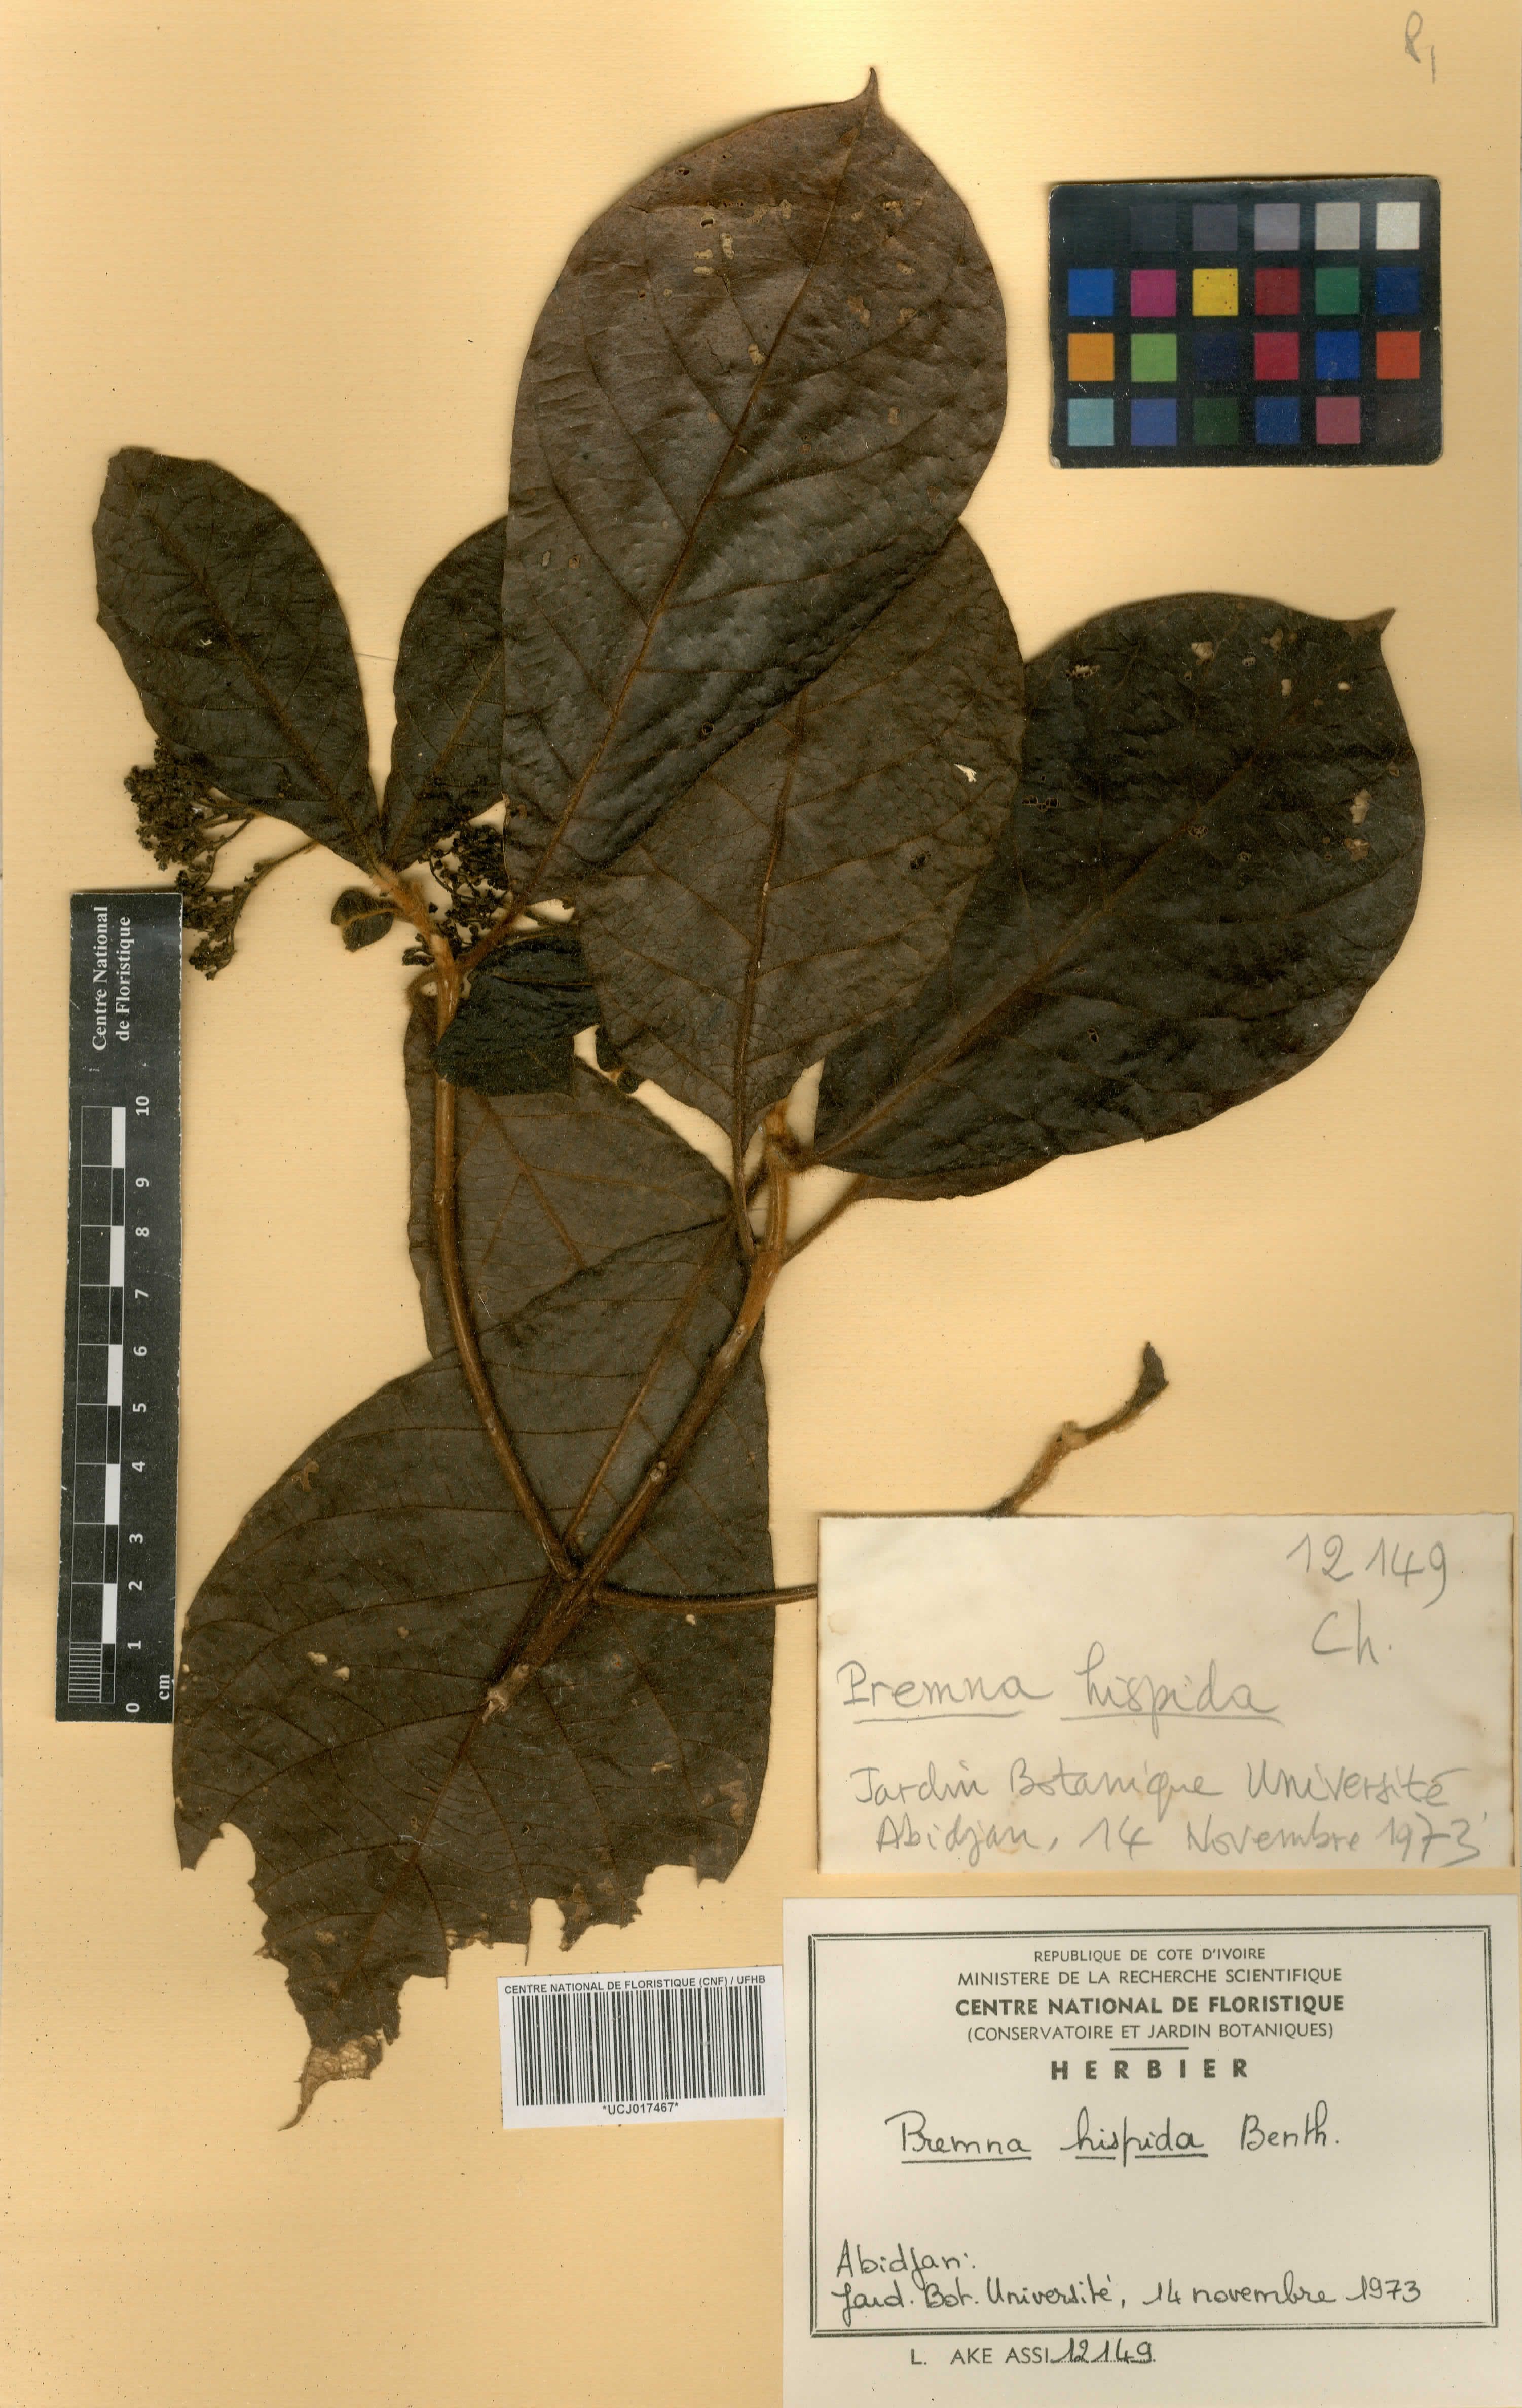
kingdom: Plantae
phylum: Tracheophyta
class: Magnoliopsida
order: Lamiales
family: Lamiaceae
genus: Premna
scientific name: Premna hispida
